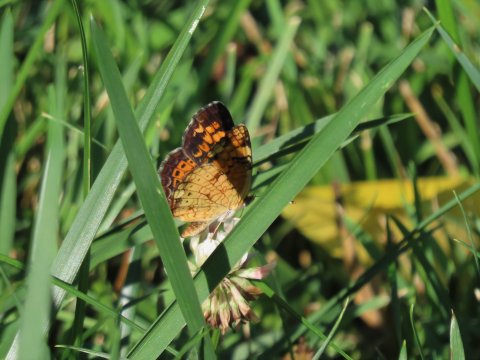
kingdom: Animalia
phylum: Arthropoda
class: Insecta
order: Lepidoptera
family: Nymphalidae
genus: Phyciodes
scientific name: Phyciodes tharos
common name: Pearl Crescent
